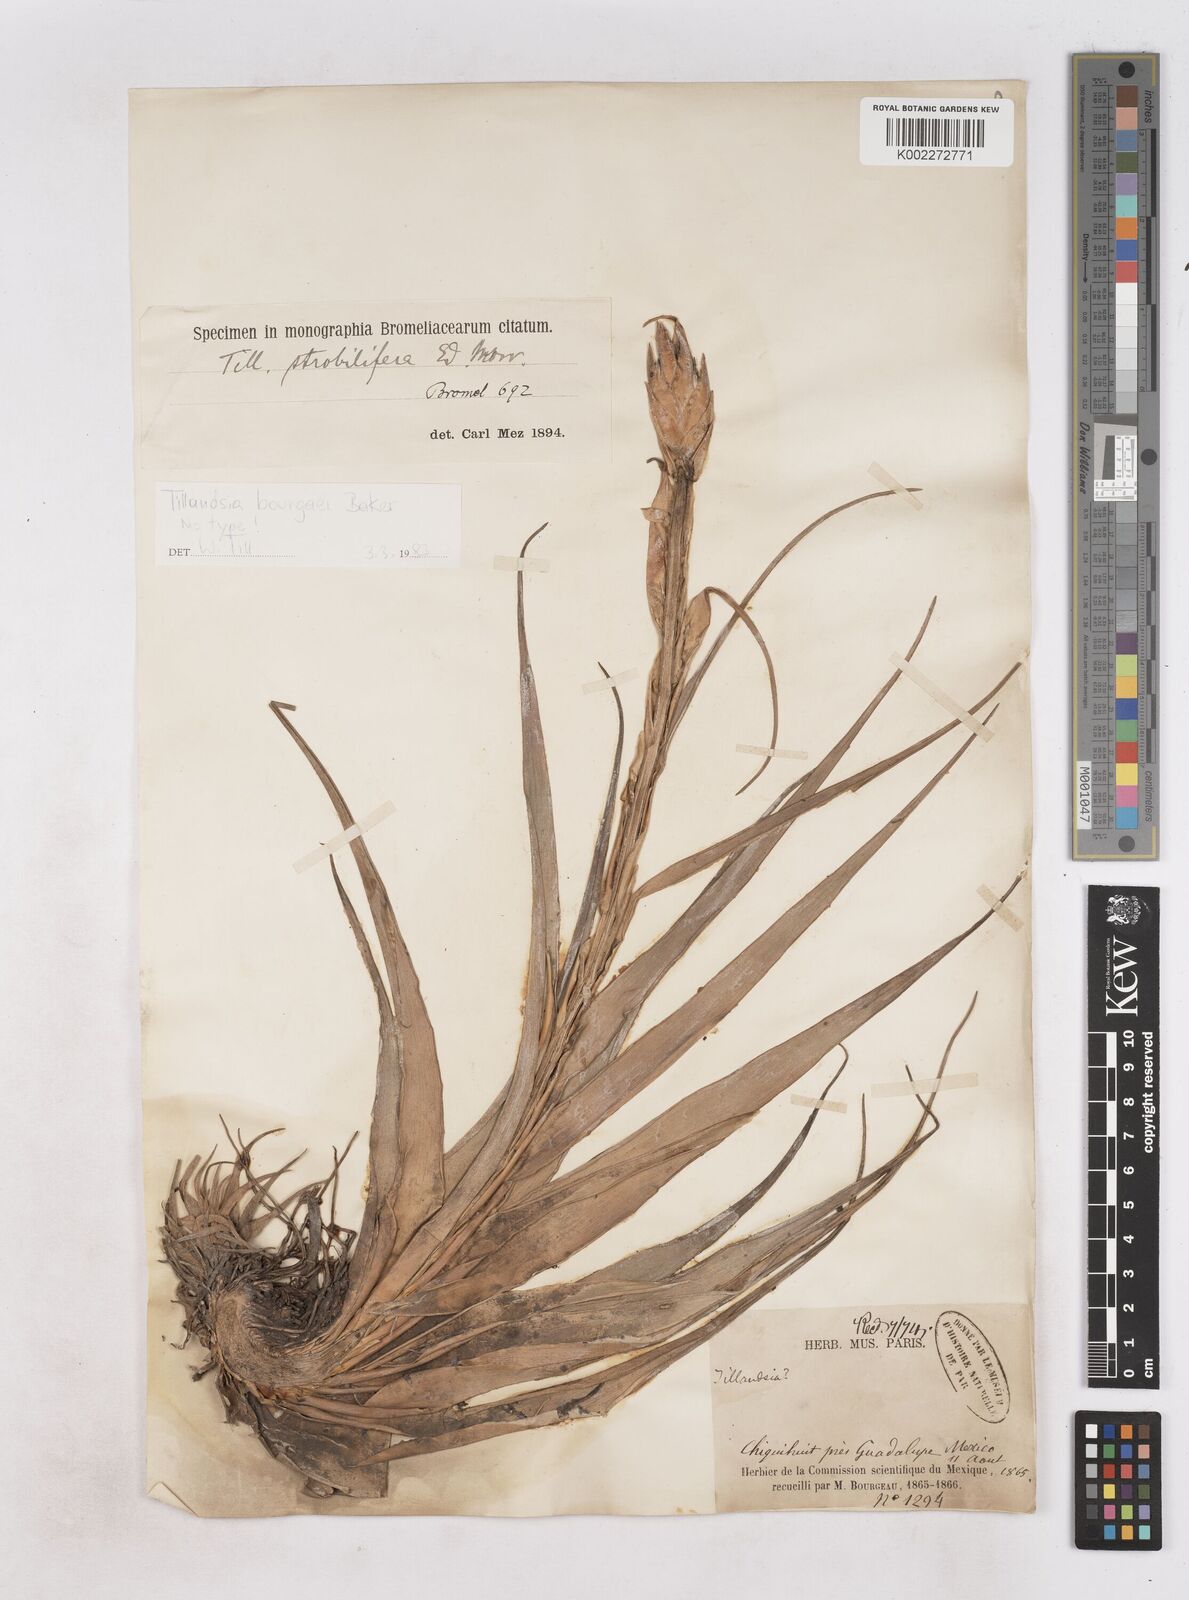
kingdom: Plantae
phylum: Tracheophyta
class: Liliopsida
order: Poales
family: Bromeliaceae
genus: Tillandsia
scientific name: Tillandsia bourgaei
